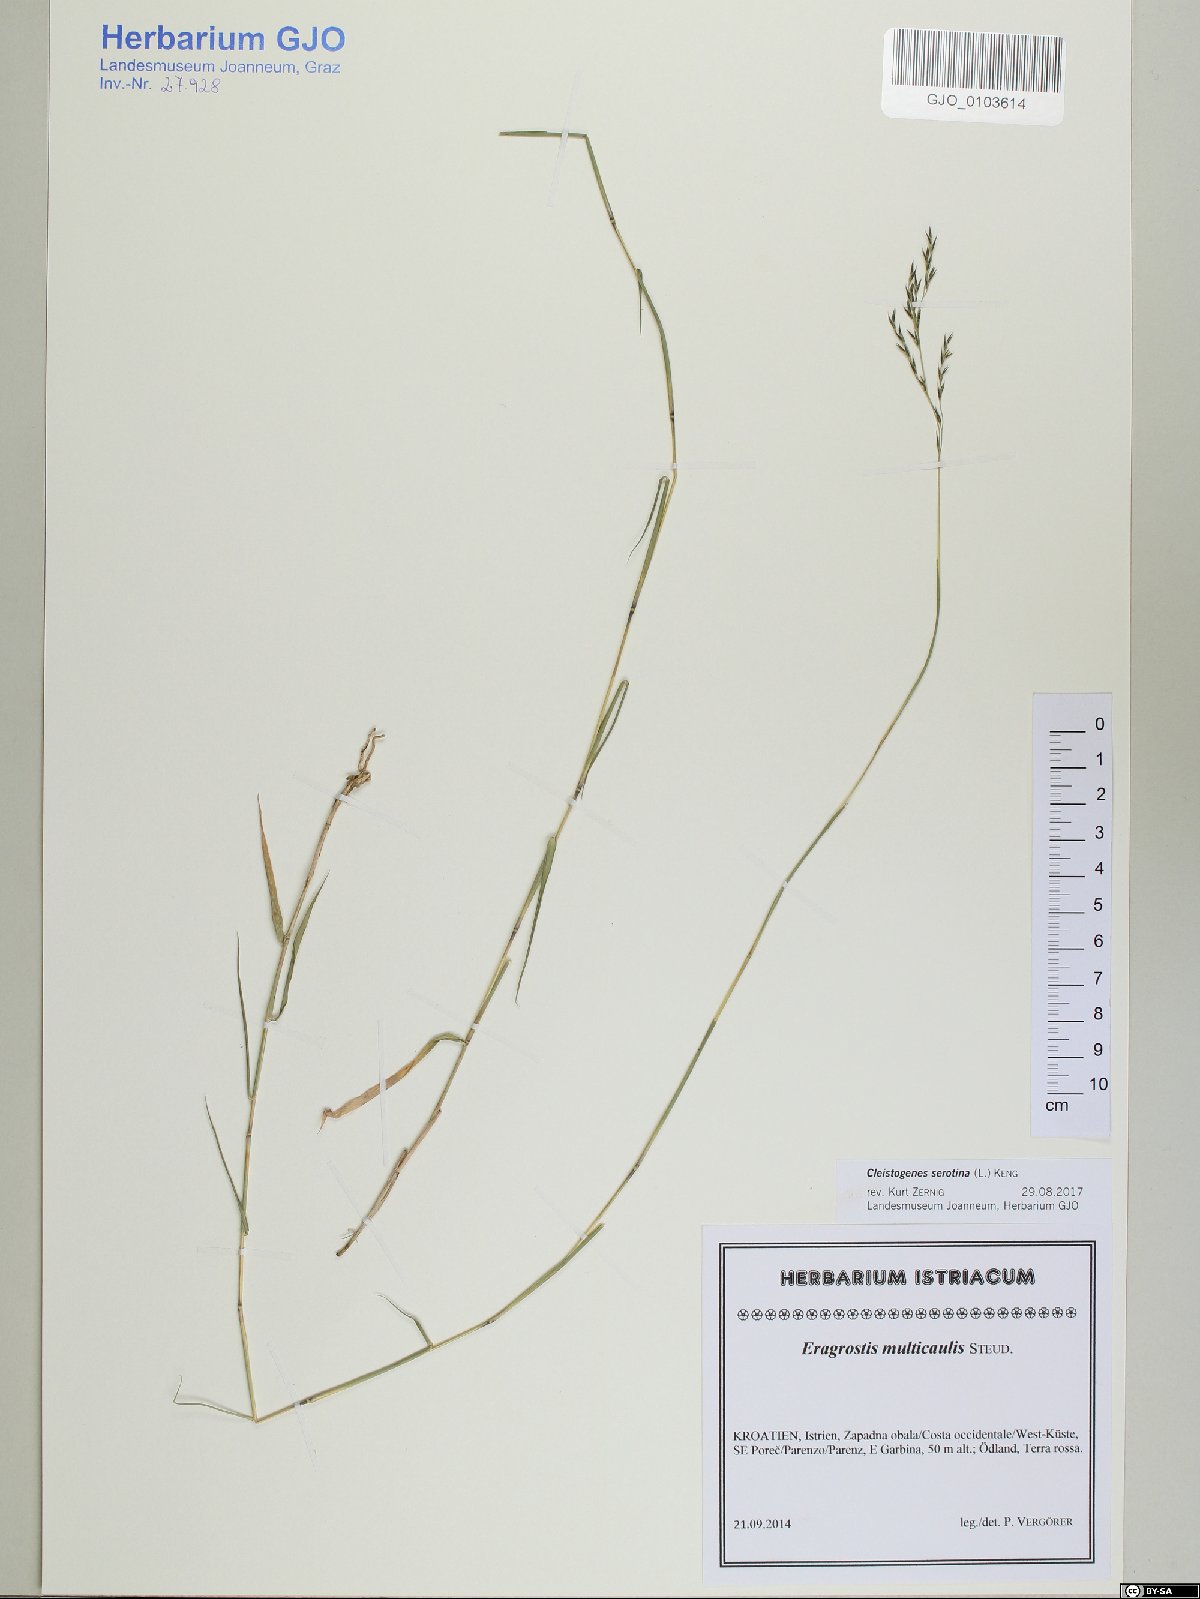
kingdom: Plantae
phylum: Tracheophyta
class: Liliopsida
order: Poales
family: Poaceae
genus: Cleistogenes
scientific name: Cleistogenes serotina
